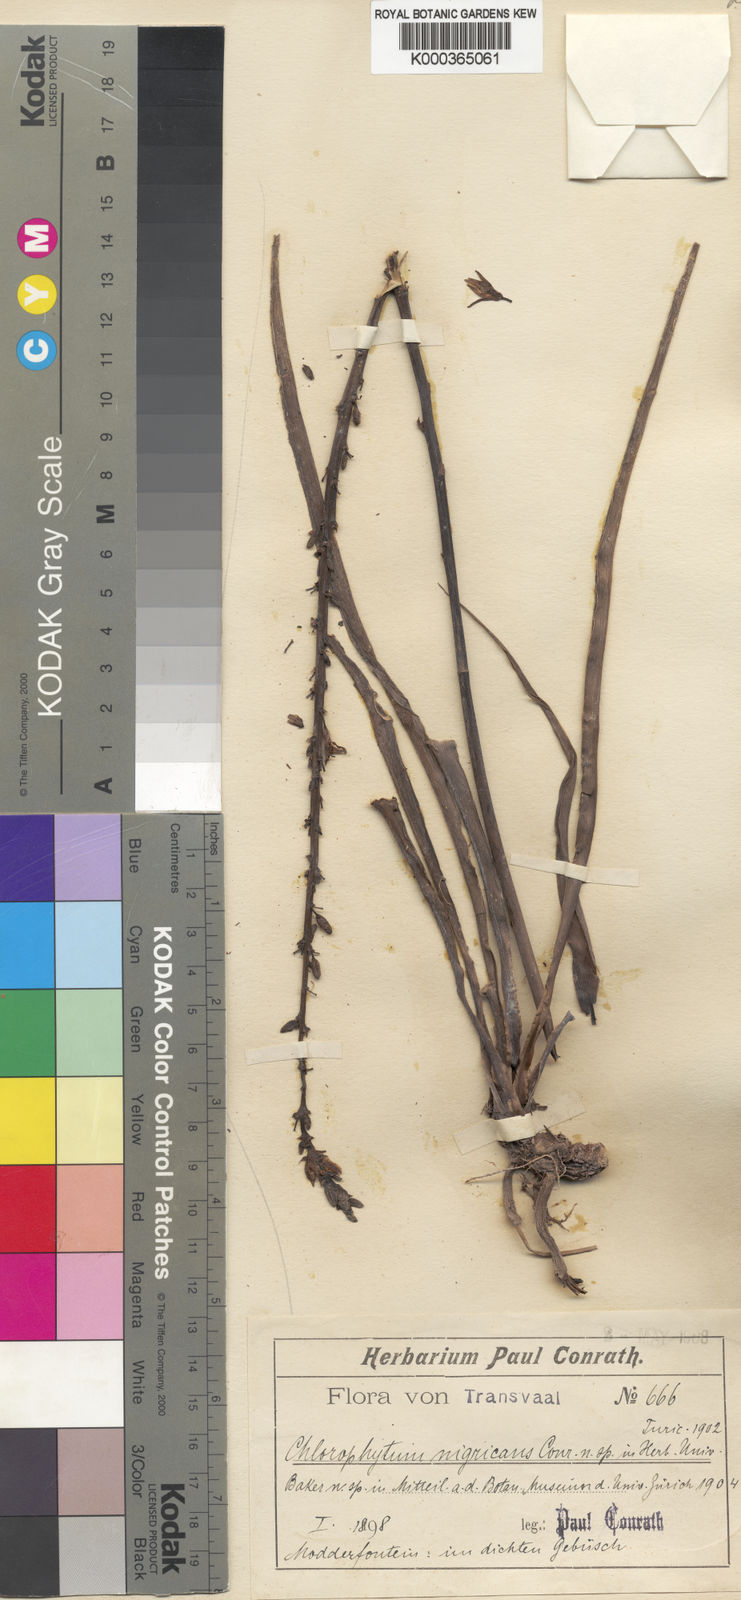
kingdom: Plantae
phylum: Tracheophyta
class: Liliopsida
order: Asparagales
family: Asparagaceae
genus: Chlorophytum
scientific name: Chlorophytum bowkeri
